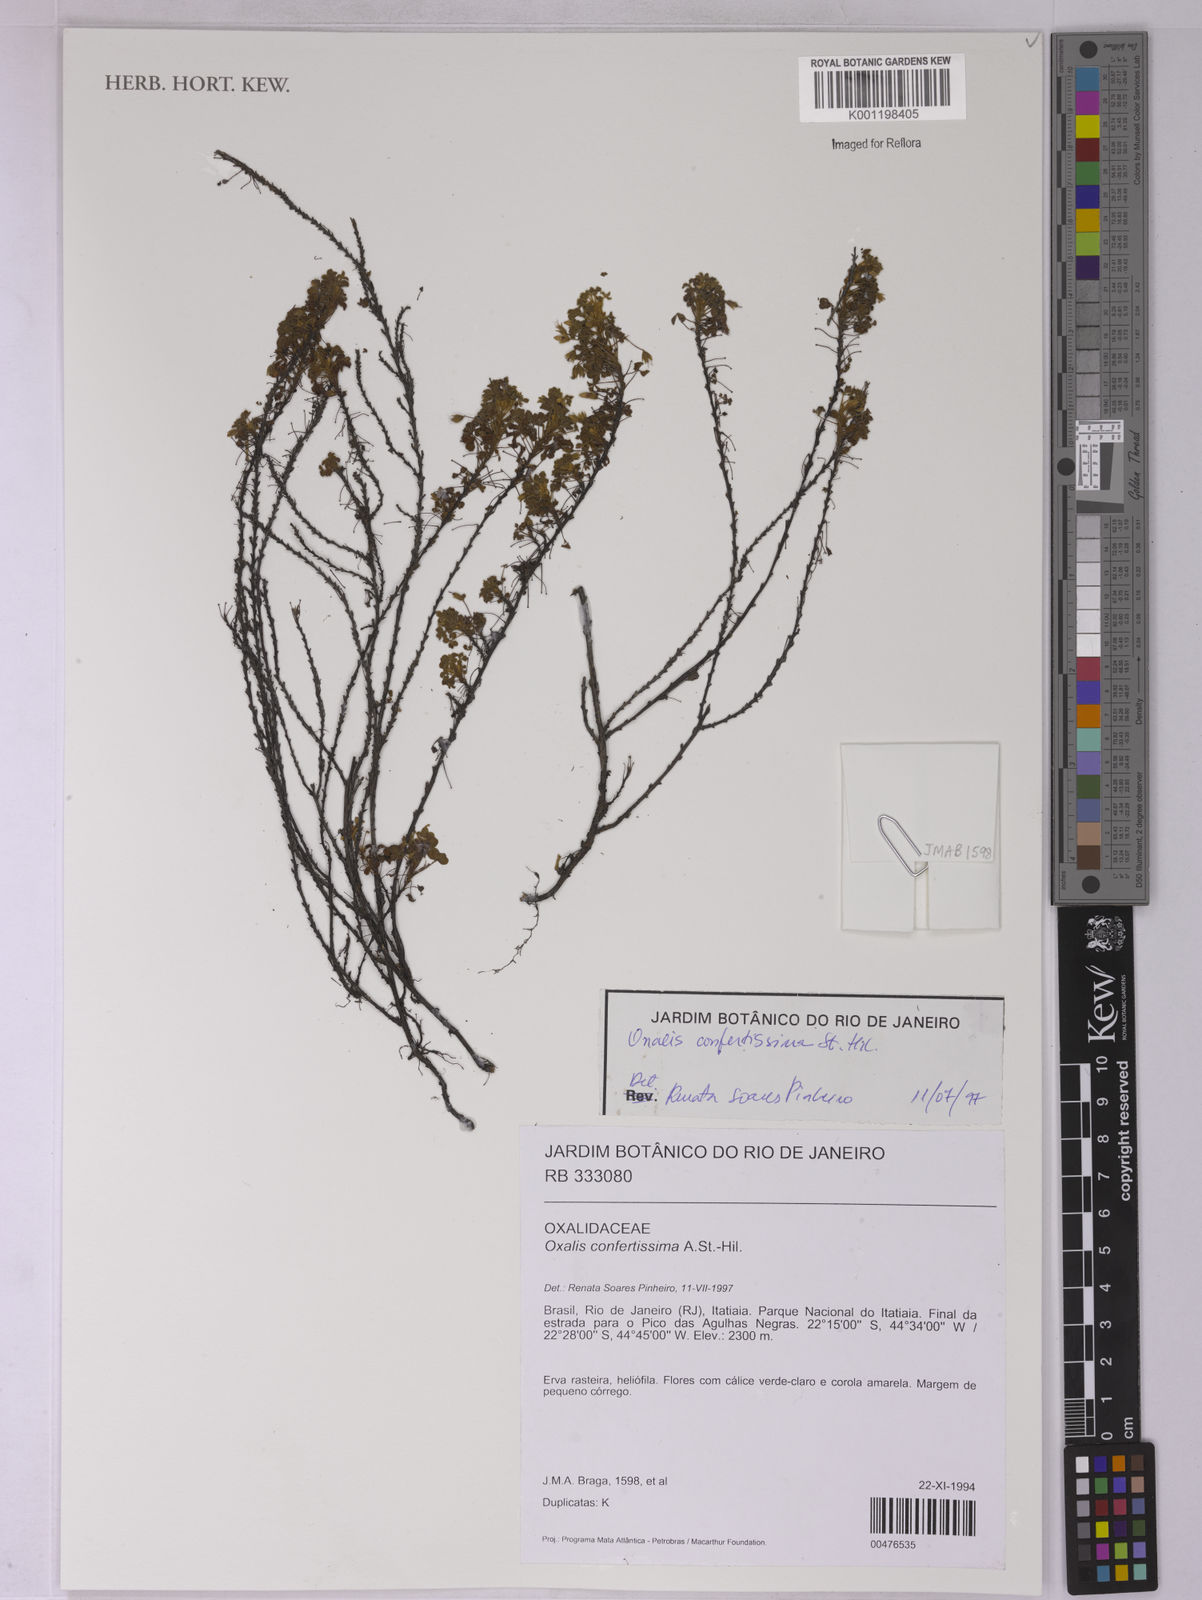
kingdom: Plantae
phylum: Tracheophyta
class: Magnoliopsida
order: Oxalidales
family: Oxalidaceae
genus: Oxalis
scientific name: Oxalis confertissima
